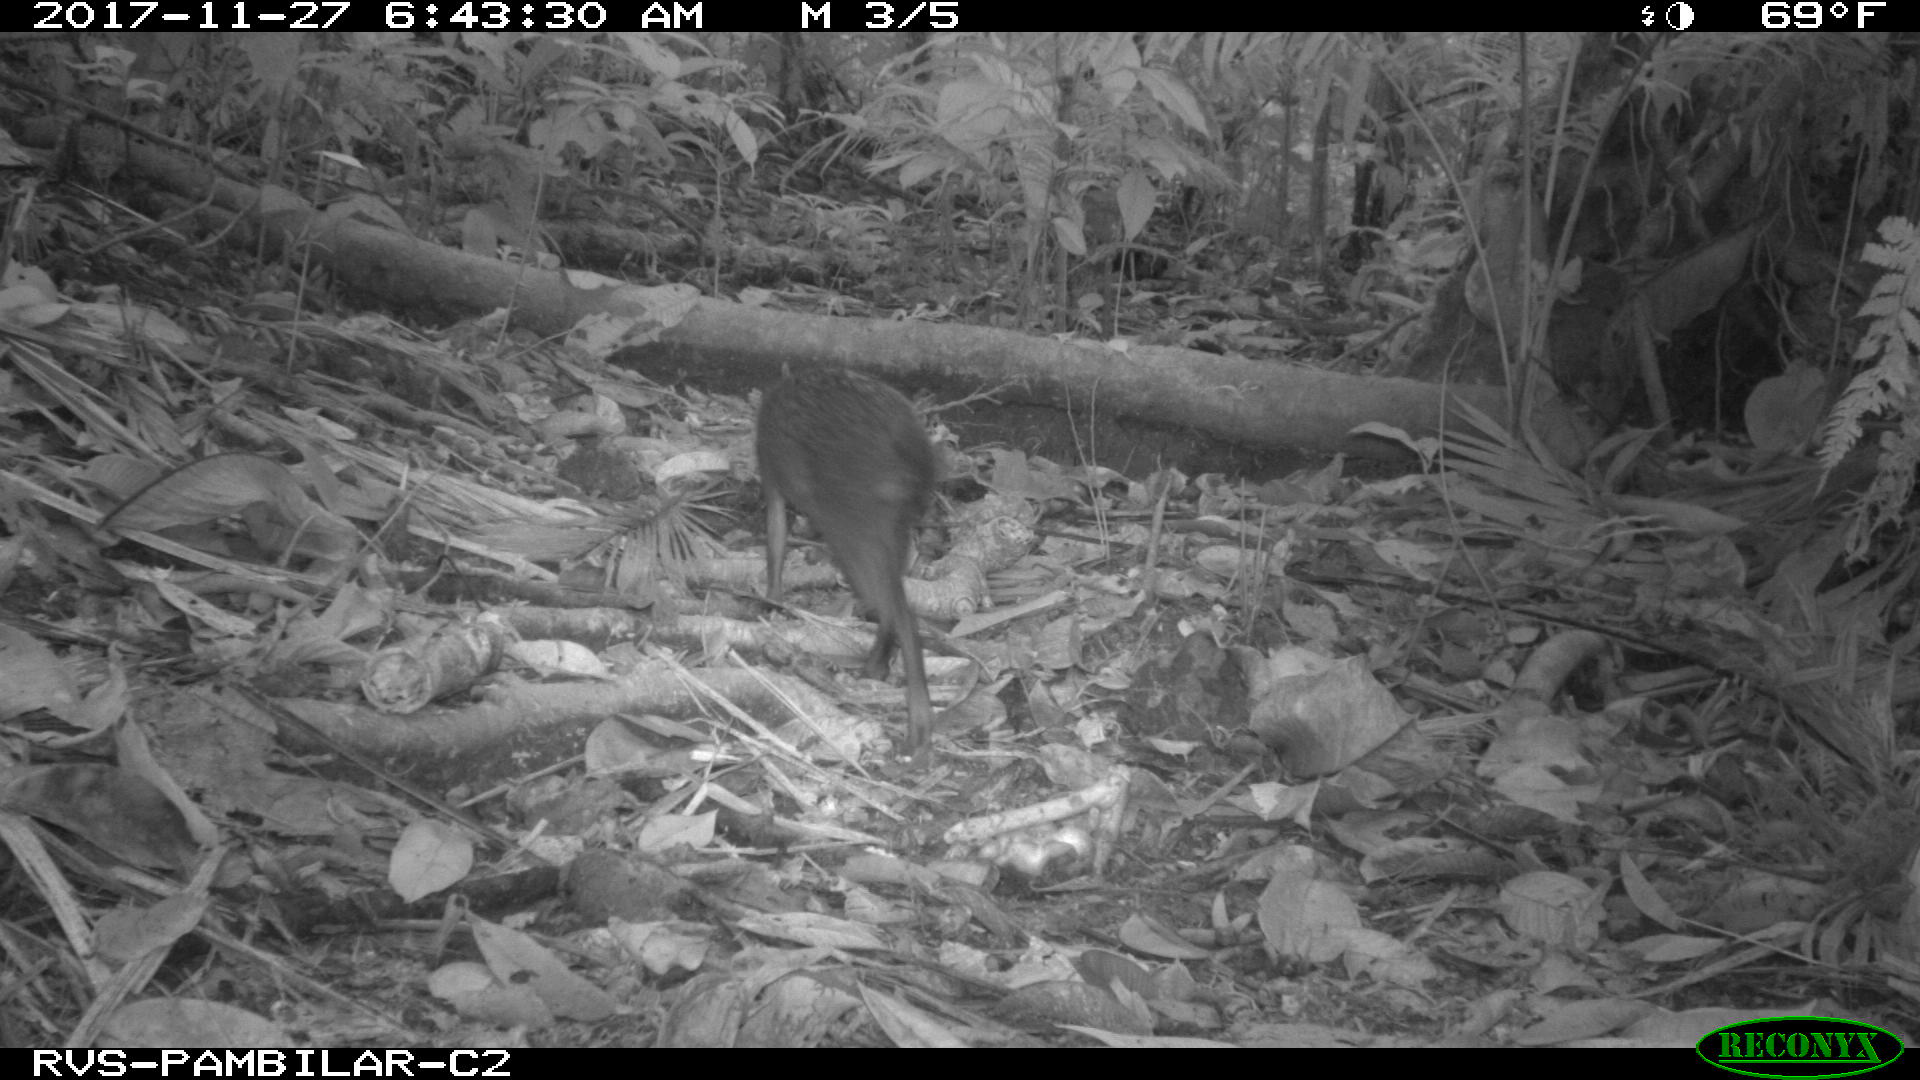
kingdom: Animalia
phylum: Chordata
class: Mammalia
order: Rodentia
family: Dasyproctidae
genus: Dasyprocta
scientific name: Dasyprocta punctata
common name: Central american agouti
